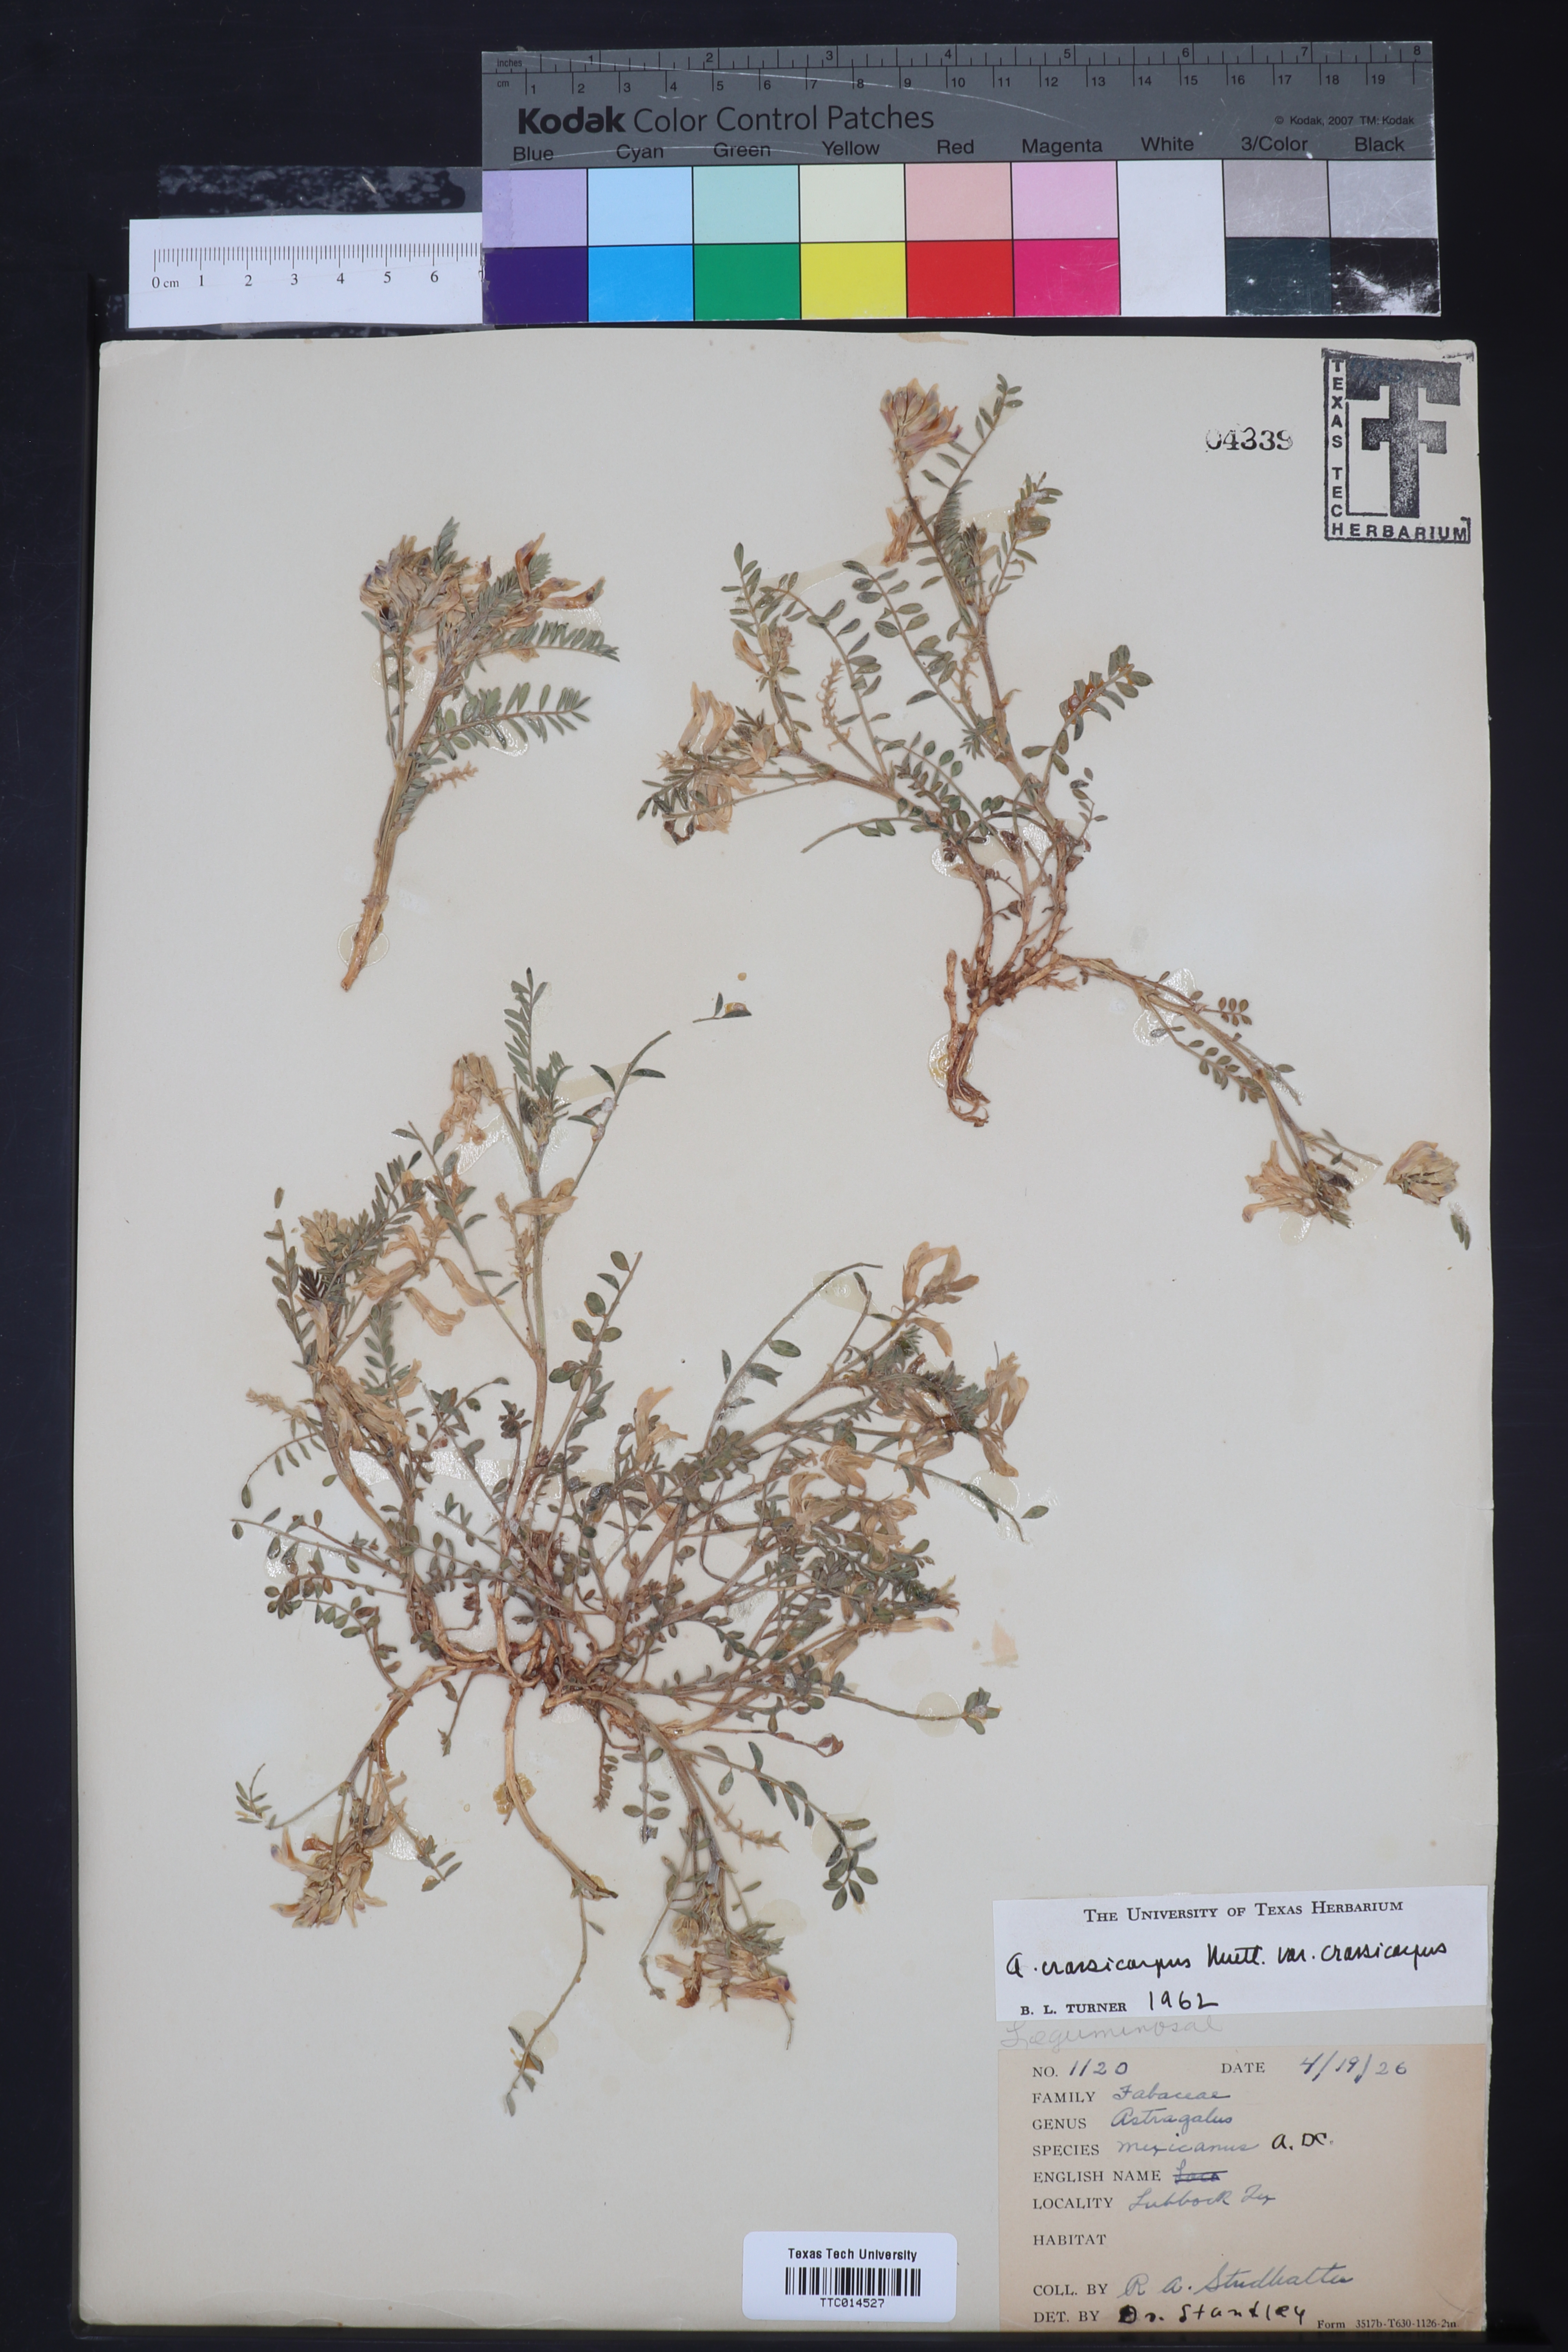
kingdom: Plantae
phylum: Tracheophyta
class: Magnoliopsida
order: Fabales
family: Fabaceae
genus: Astragalus
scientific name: Astragalus crassicarpus
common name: Ground-plum milk-vetch
